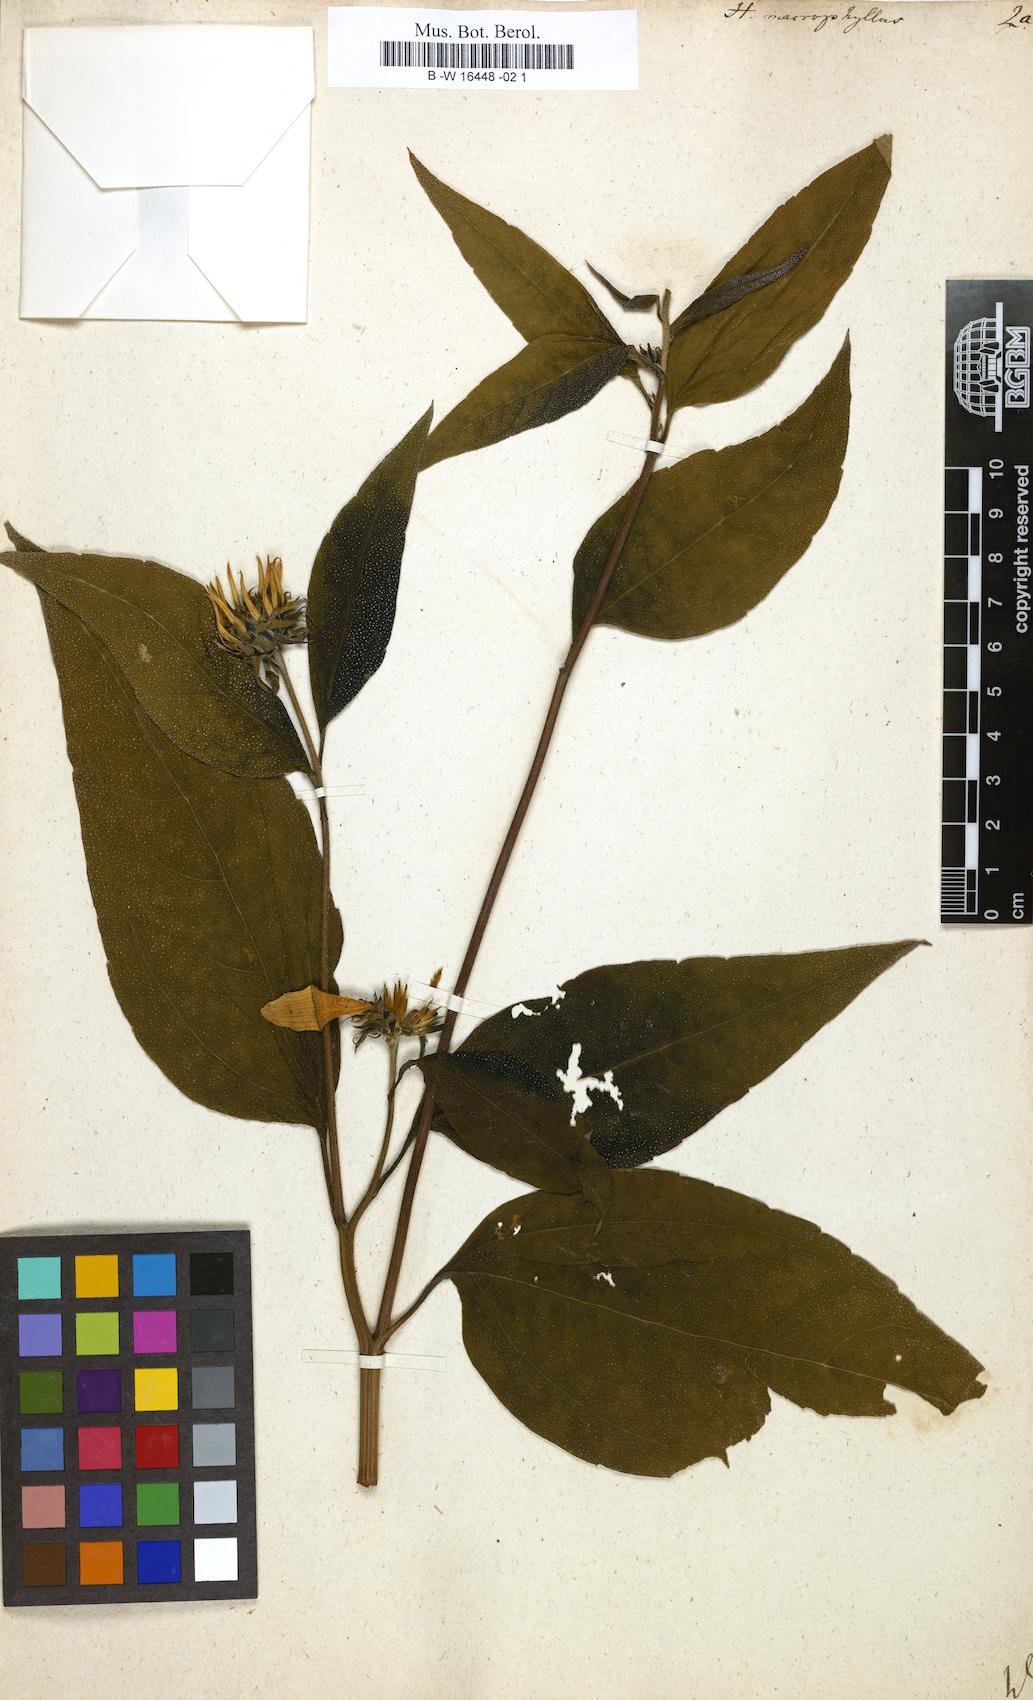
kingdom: Plantae
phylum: Tracheophyta
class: Magnoliopsida
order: Asterales
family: Asteraceae
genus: Helianthus
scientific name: Helianthus strumosus
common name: Pale-leaved sunflower
